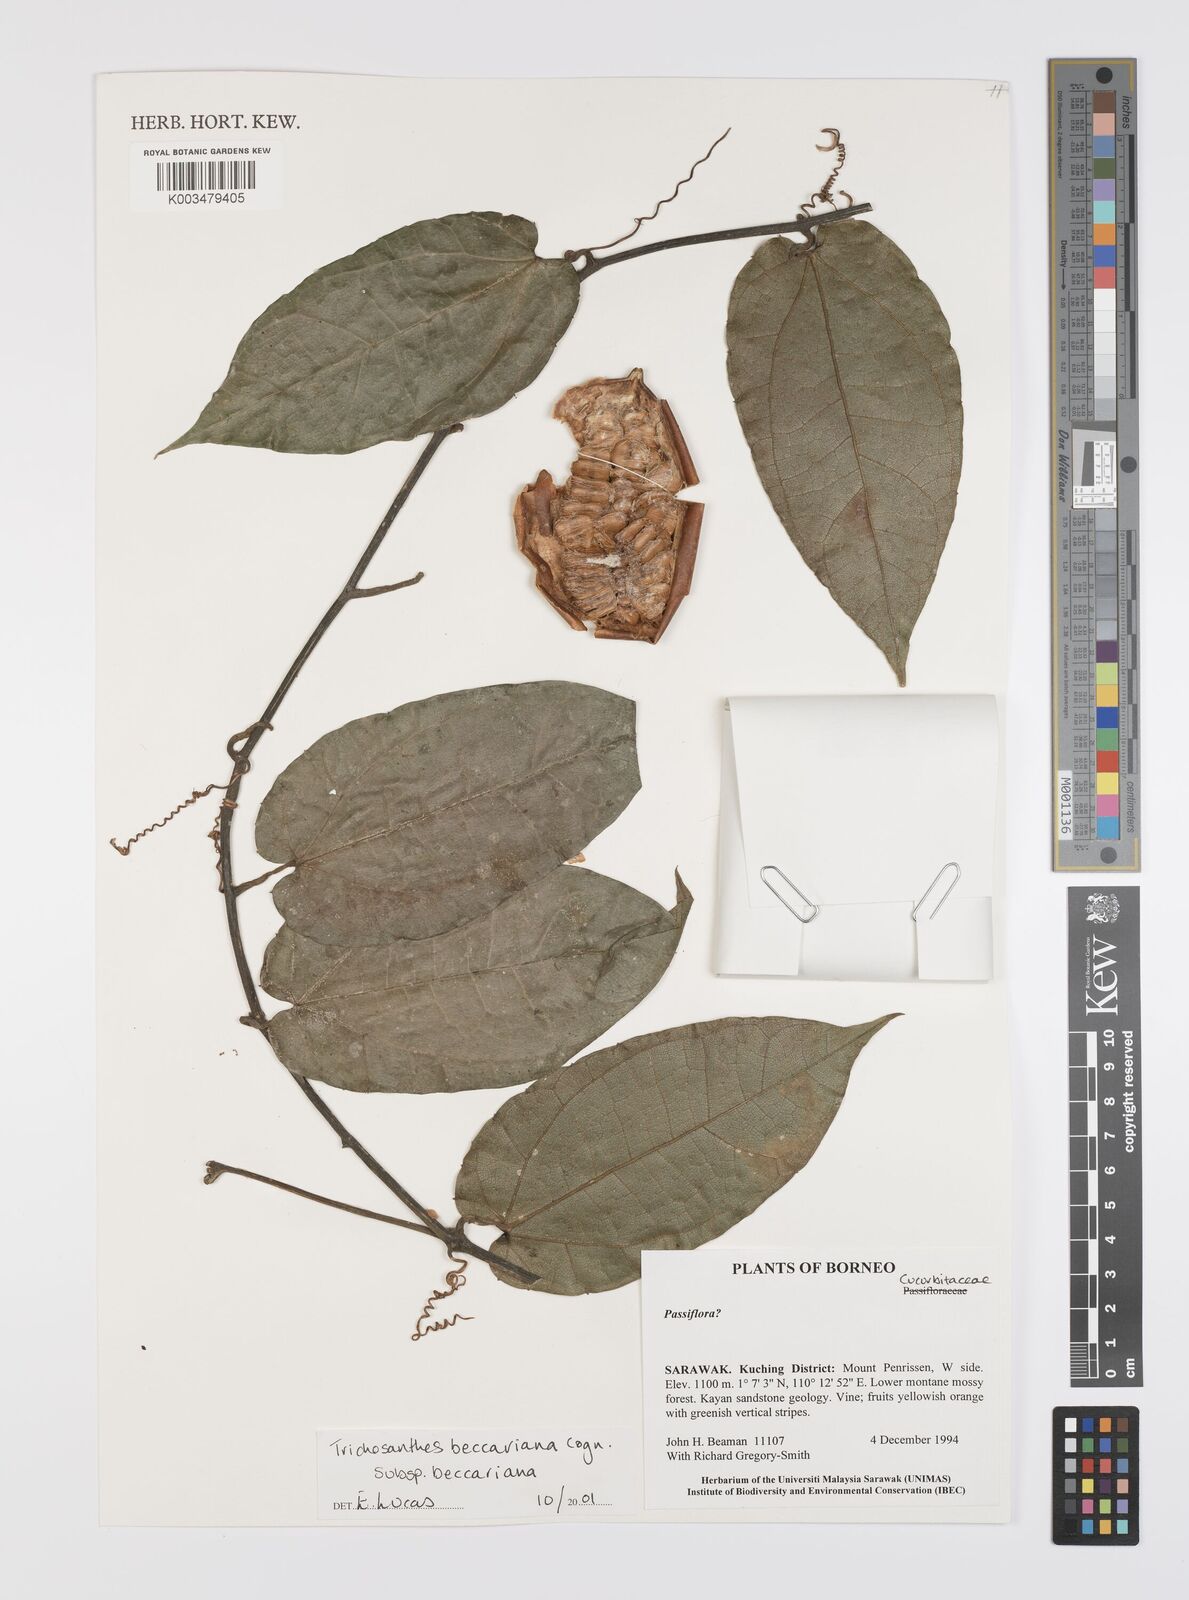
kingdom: Plantae
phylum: Tracheophyta
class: Magnoliopsida
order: Cucurbitales
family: Cucurbitaceae
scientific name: Cucurbitaceae
